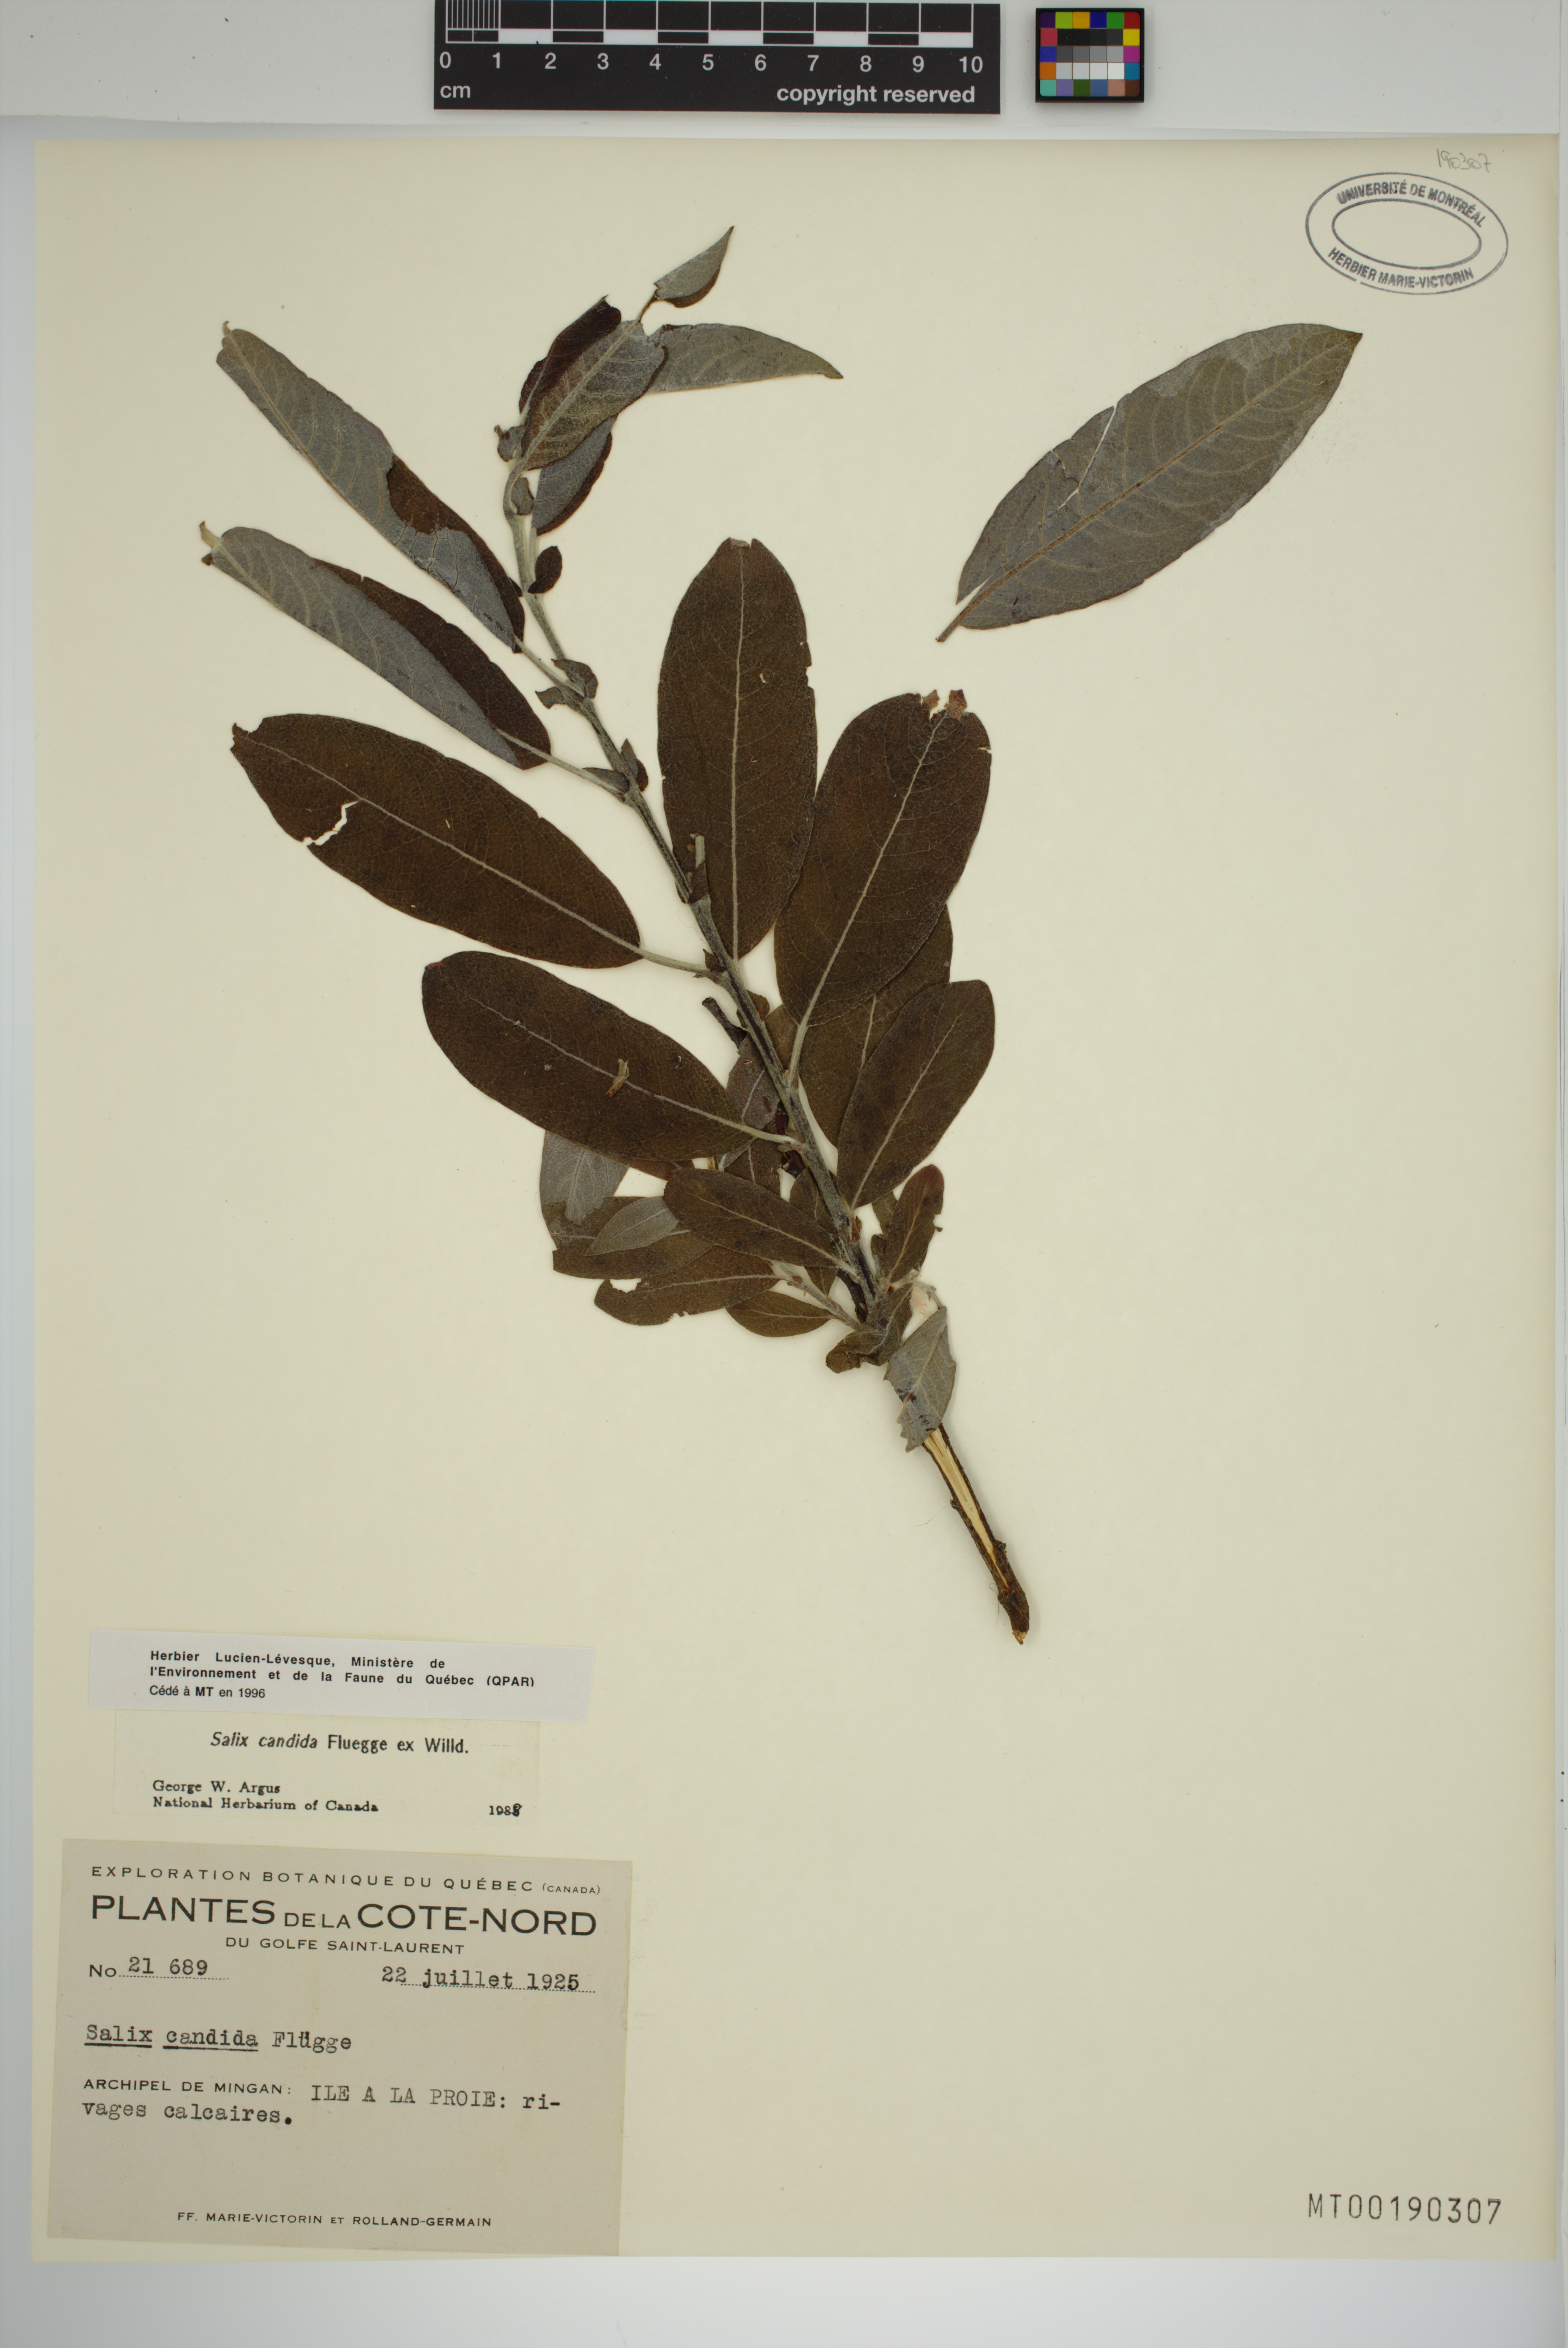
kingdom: Plantae
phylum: Tracheophyta
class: Magnoliopsida
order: Malpighiales
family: Salicaceae
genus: Salix
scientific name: Salix candida
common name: Hoary willow
